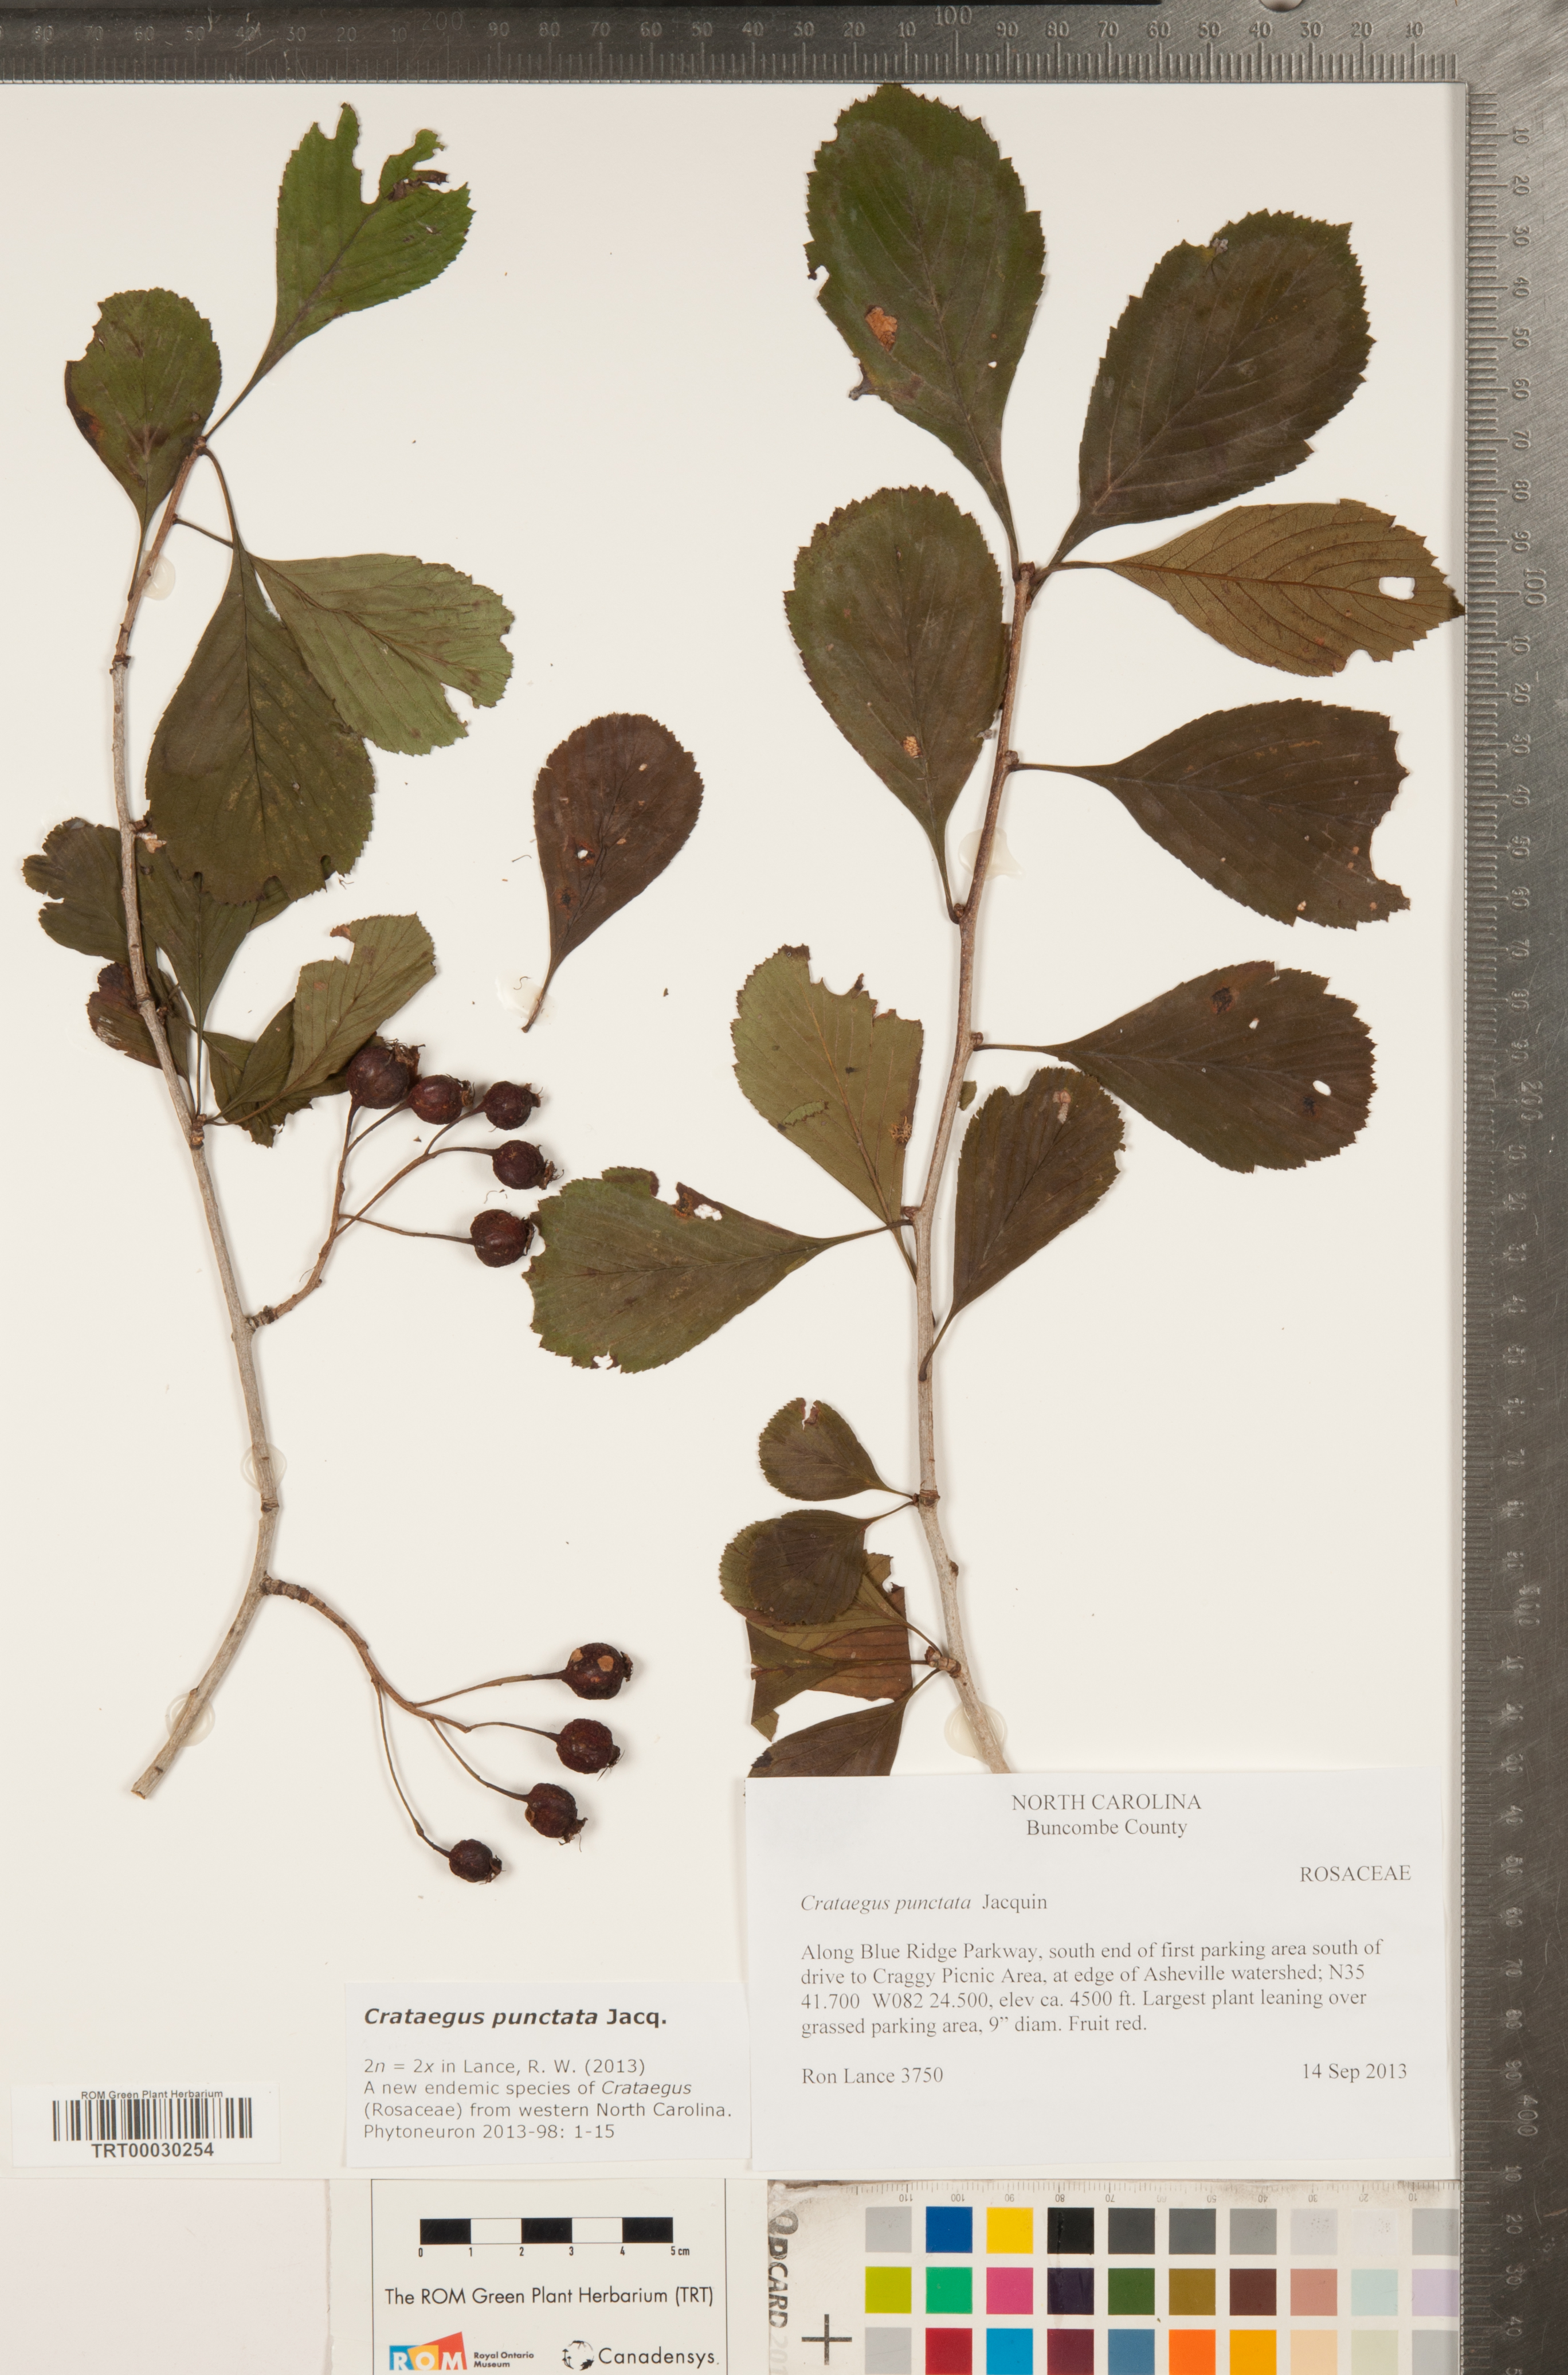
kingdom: Plantae
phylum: Tracheophyta
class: Magnoliopsida
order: Rosales
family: Rosaceae
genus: Crataegus
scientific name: Crataegus punctata
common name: Dotted hawthorn
